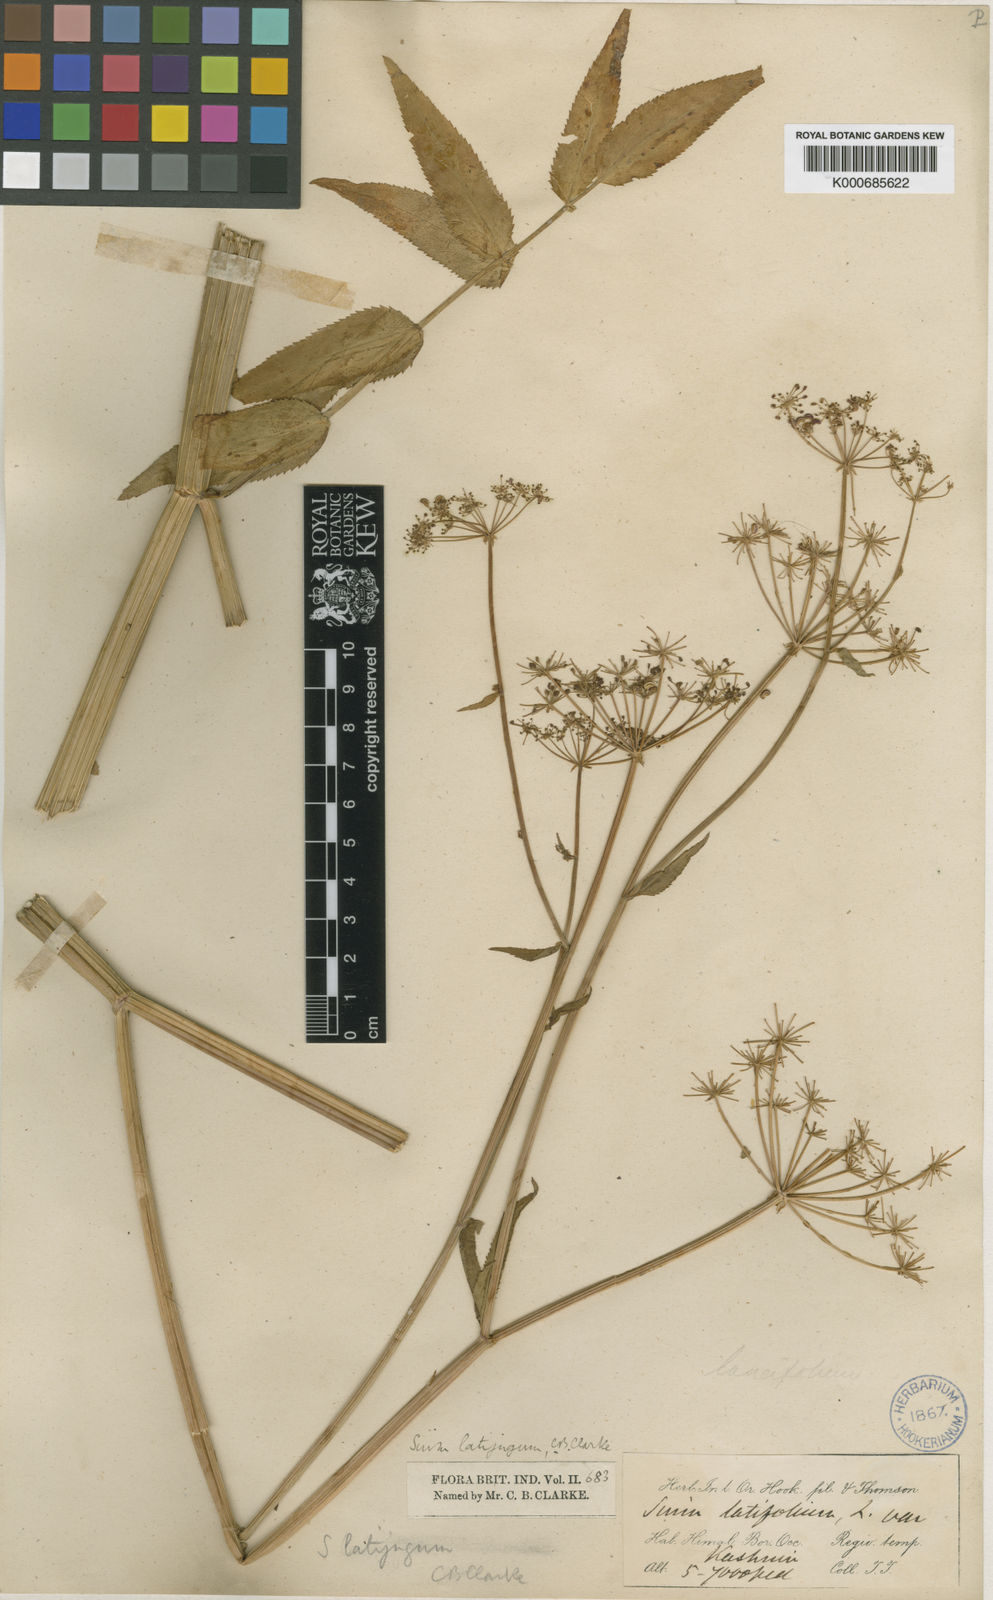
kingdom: Plantae
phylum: Tracheophyta
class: Magnoliopsida
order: Apiales
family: Apiaceae
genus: Sium
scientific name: Sium sisarum
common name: Skirret
